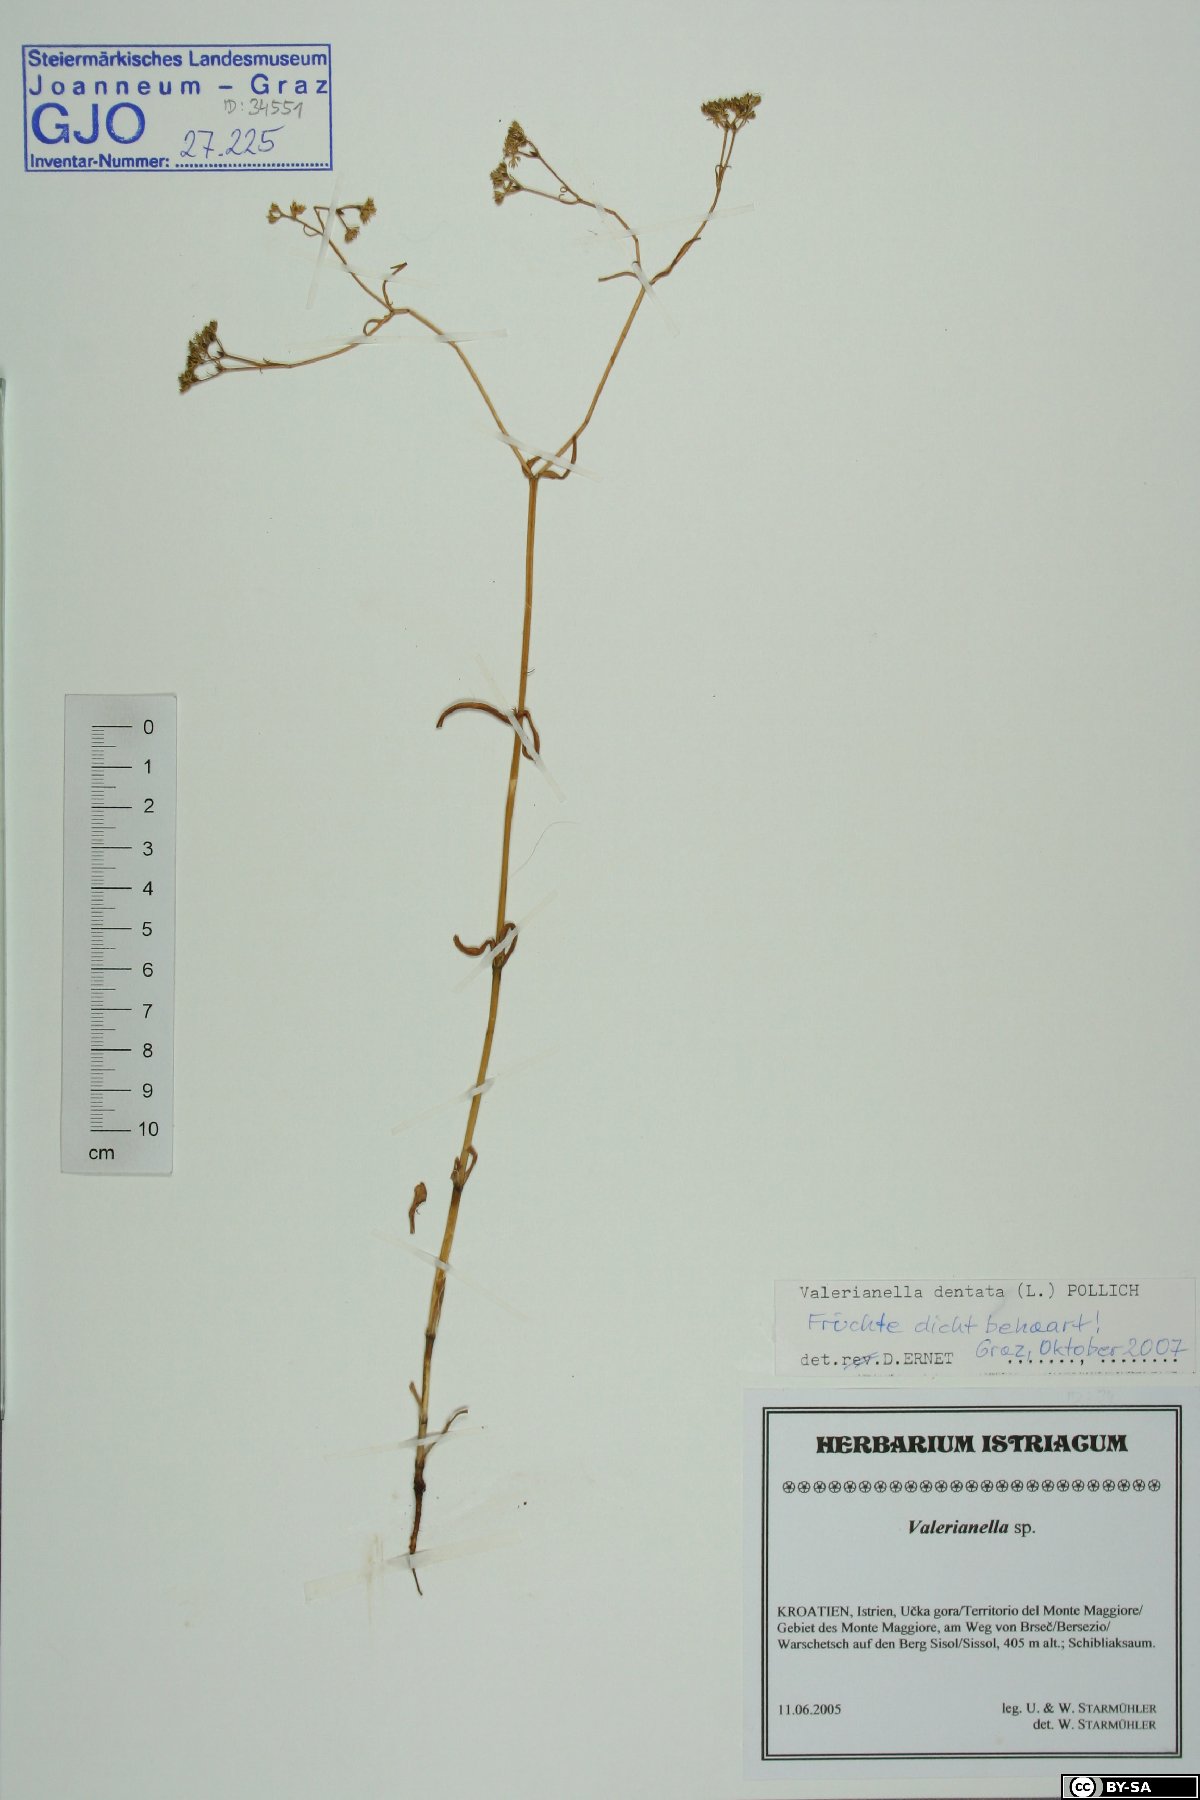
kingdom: Plantae
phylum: Tracheophyta
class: Magnoliopsida
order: Dipsacales
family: Caprifoliaceae
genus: Valerianella
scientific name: Valerianella dentata
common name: Narrow-fruited cornsalad
